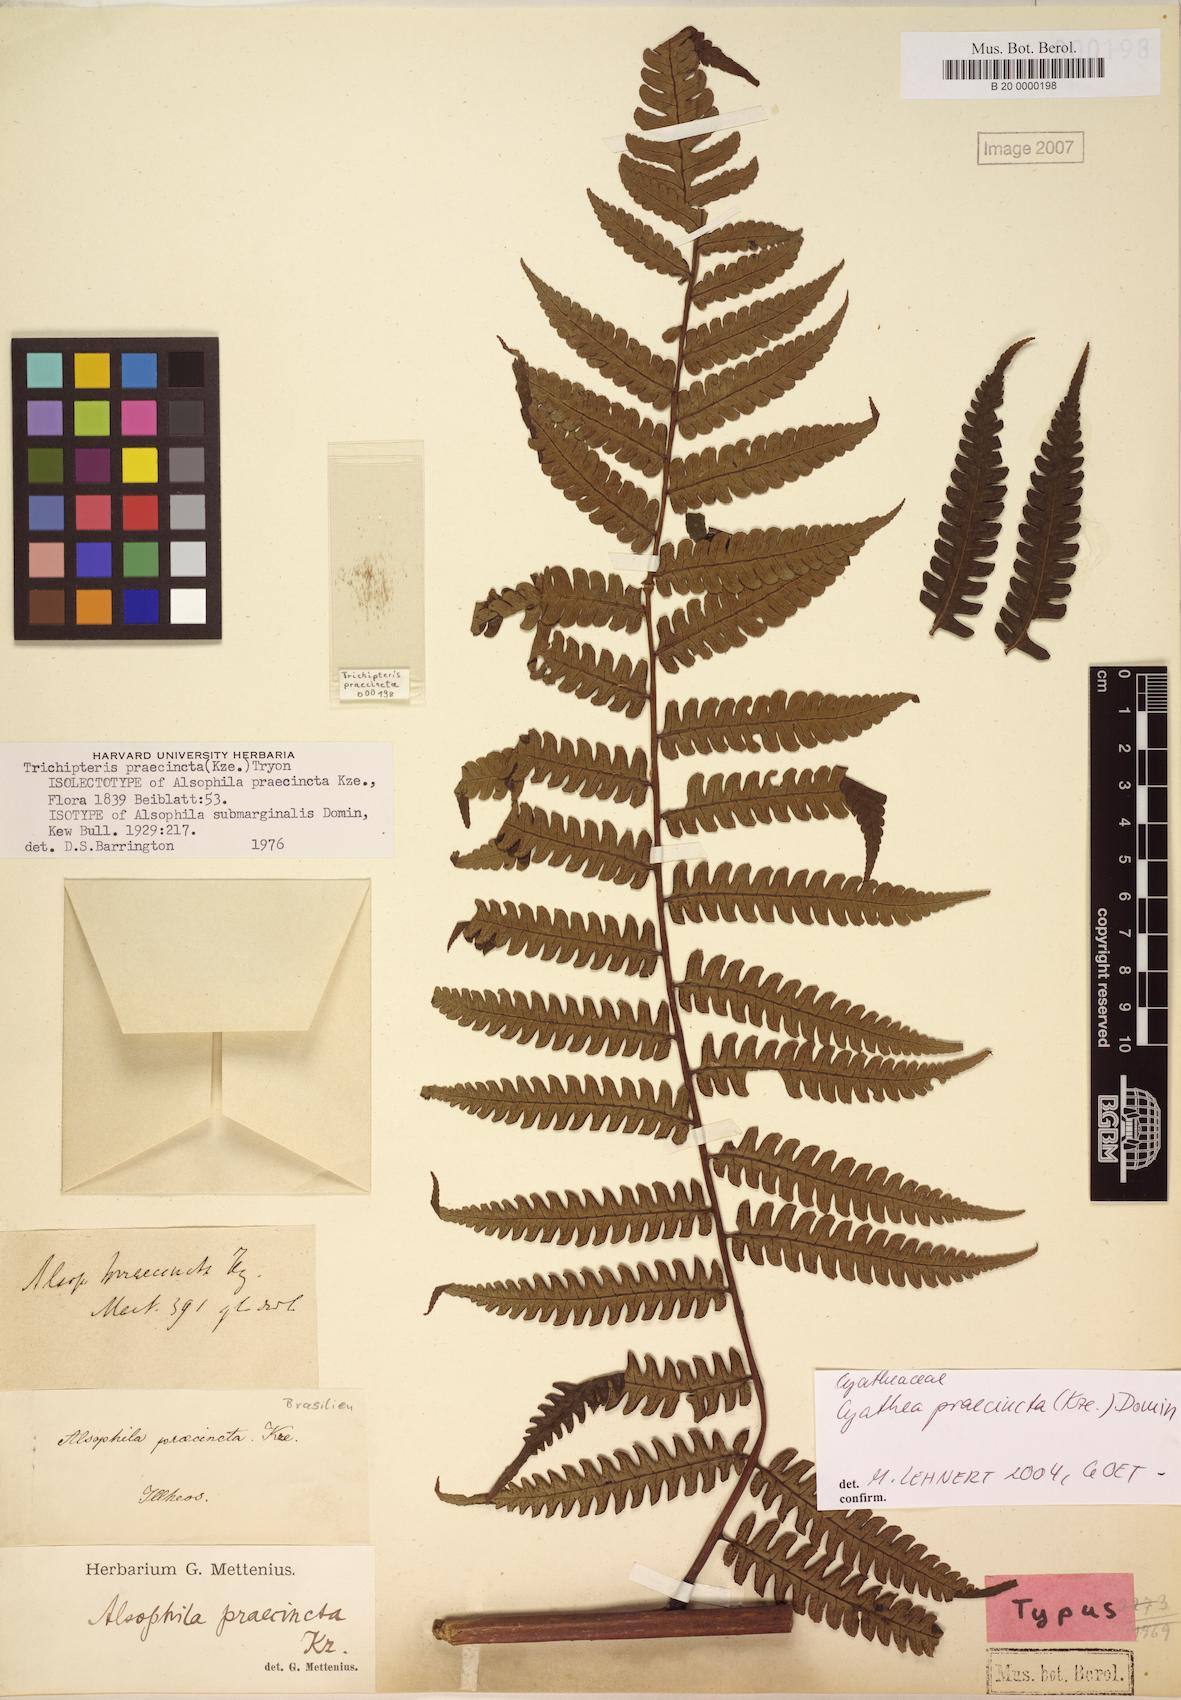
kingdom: Plantae
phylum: Tracheophyta
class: Polypodiopsida
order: Cyatheales
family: Cyatheaceae
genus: Cyathea
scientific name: Cyathea praecincta
